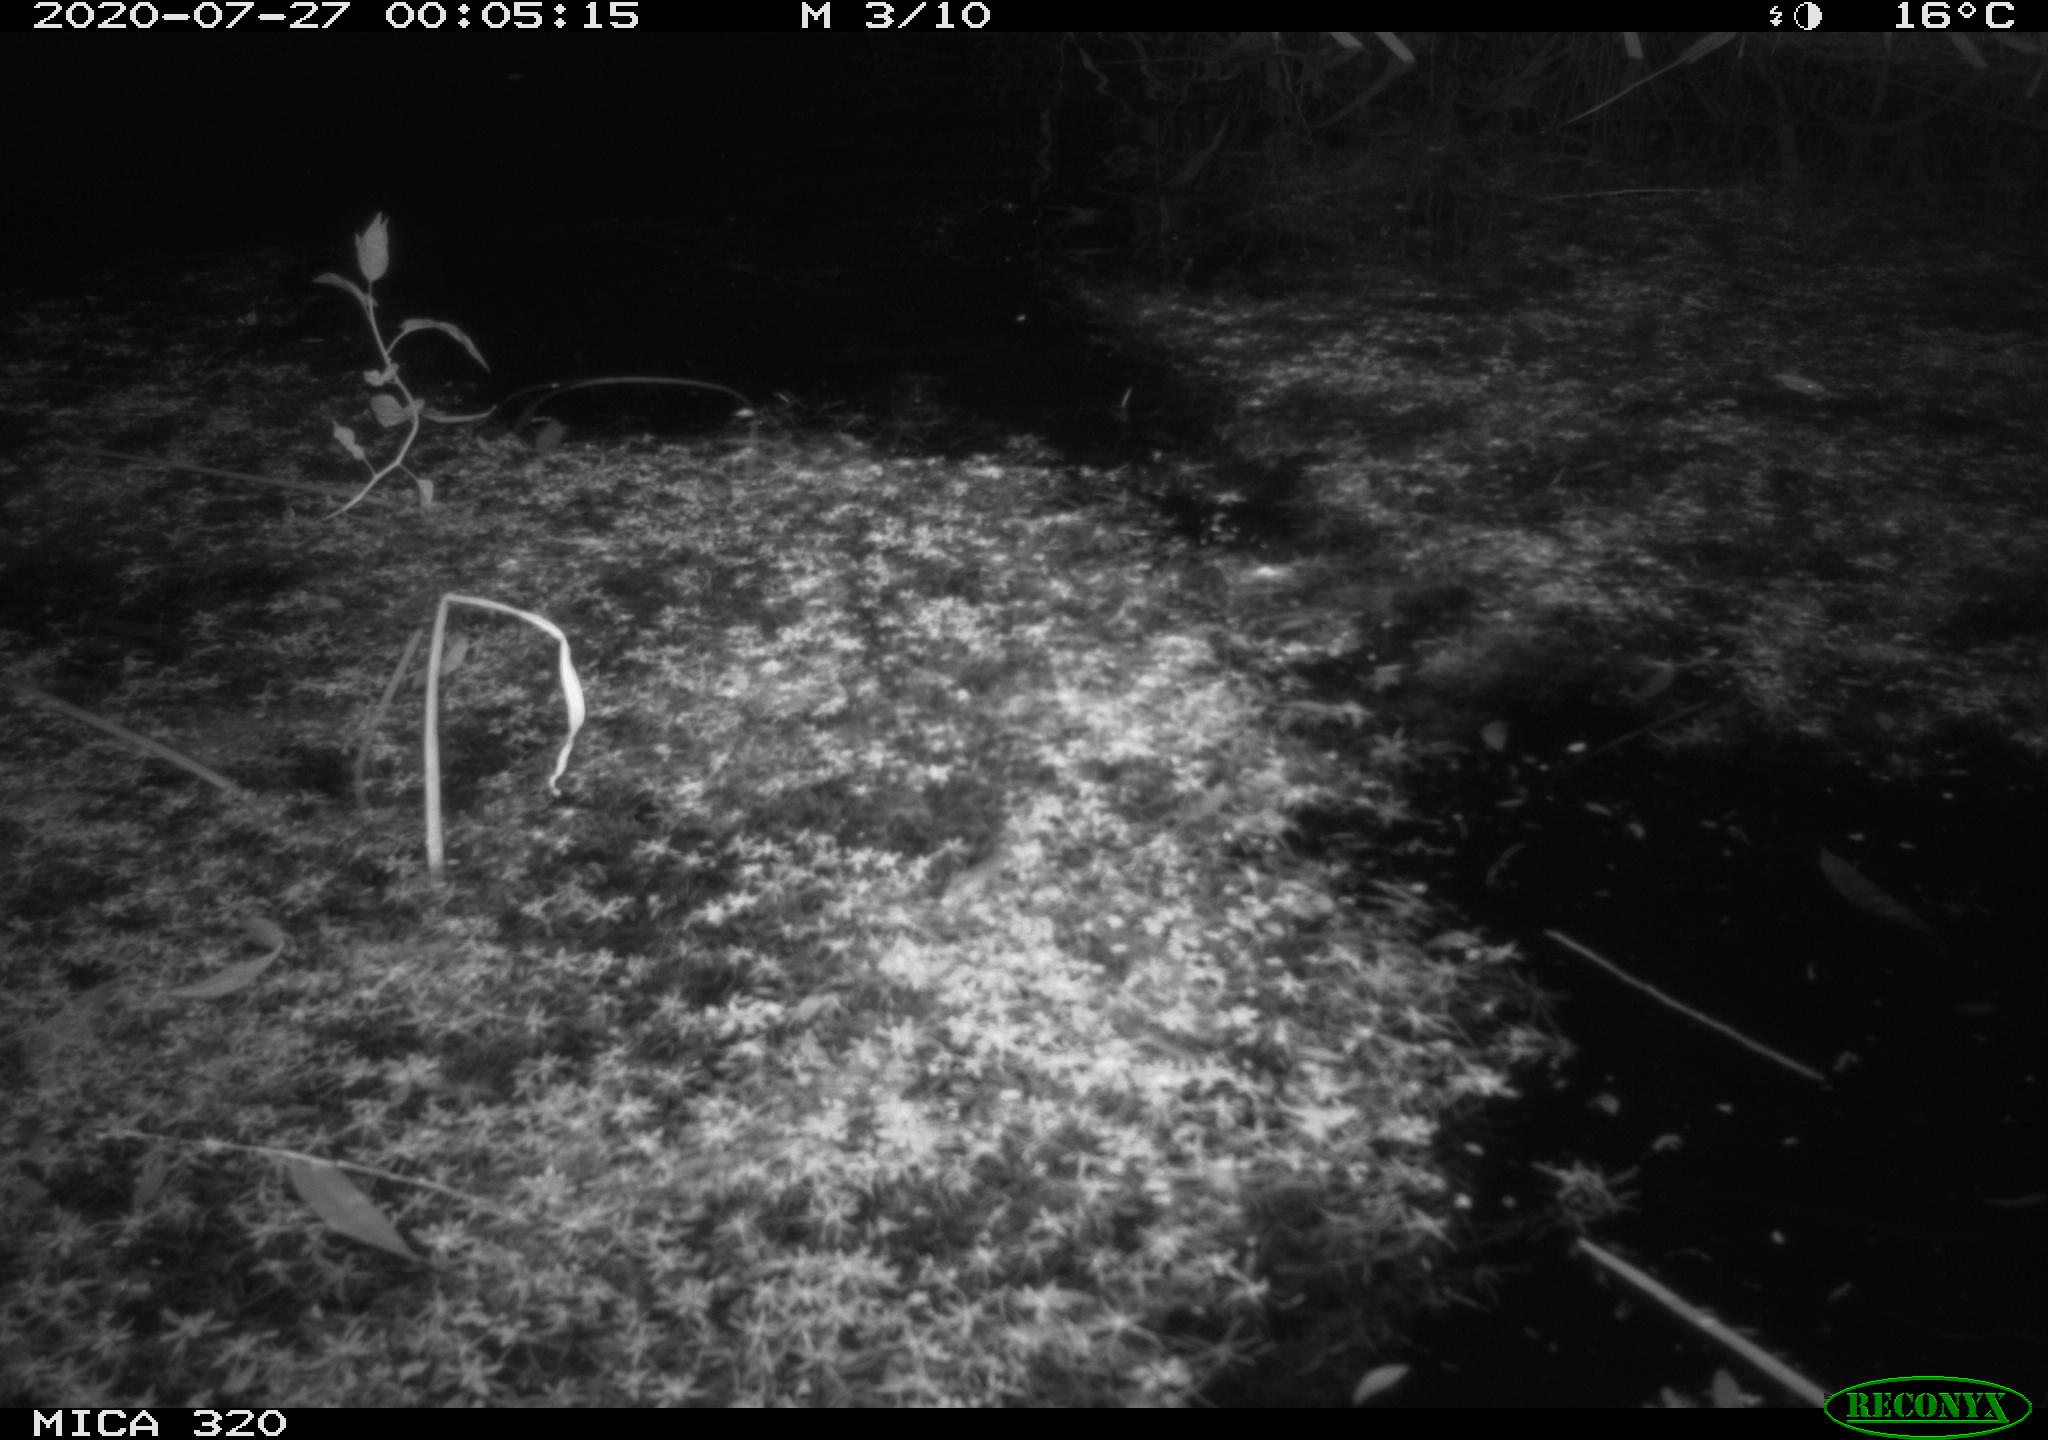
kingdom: Animalia
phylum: Chordata
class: Aves
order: Anseriformes
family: Anatidae
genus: Anas
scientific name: Anas platyrhynchos
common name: Mallard
